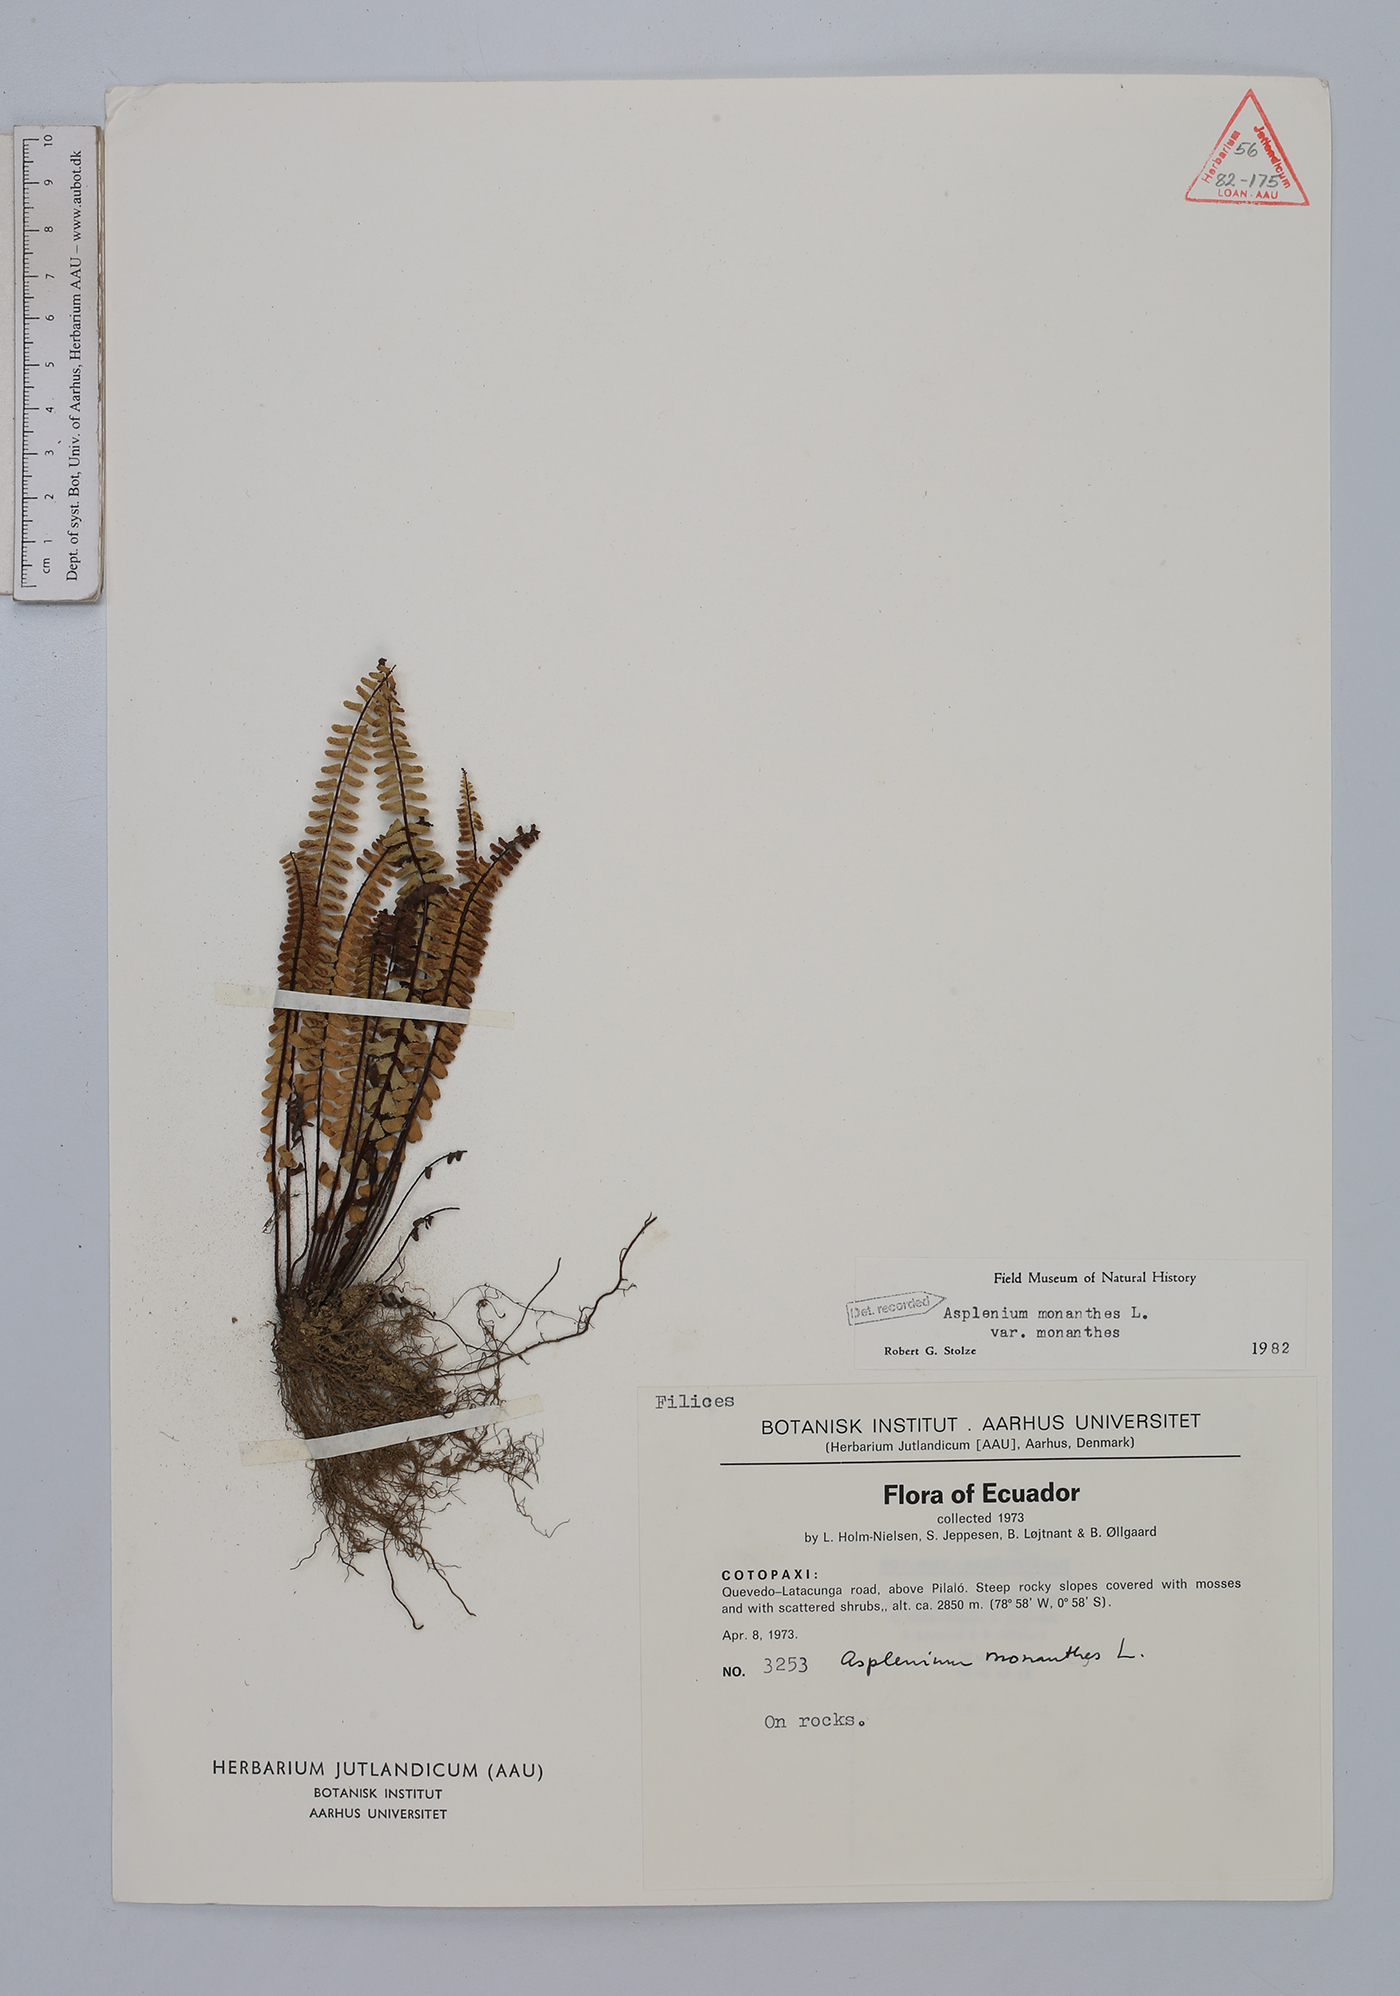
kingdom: Plantae
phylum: Tracheophyta
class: Polypodiopsida
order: Polypodiales
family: Aspleniaceae
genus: Asplenium
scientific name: Asplenium monanthes
